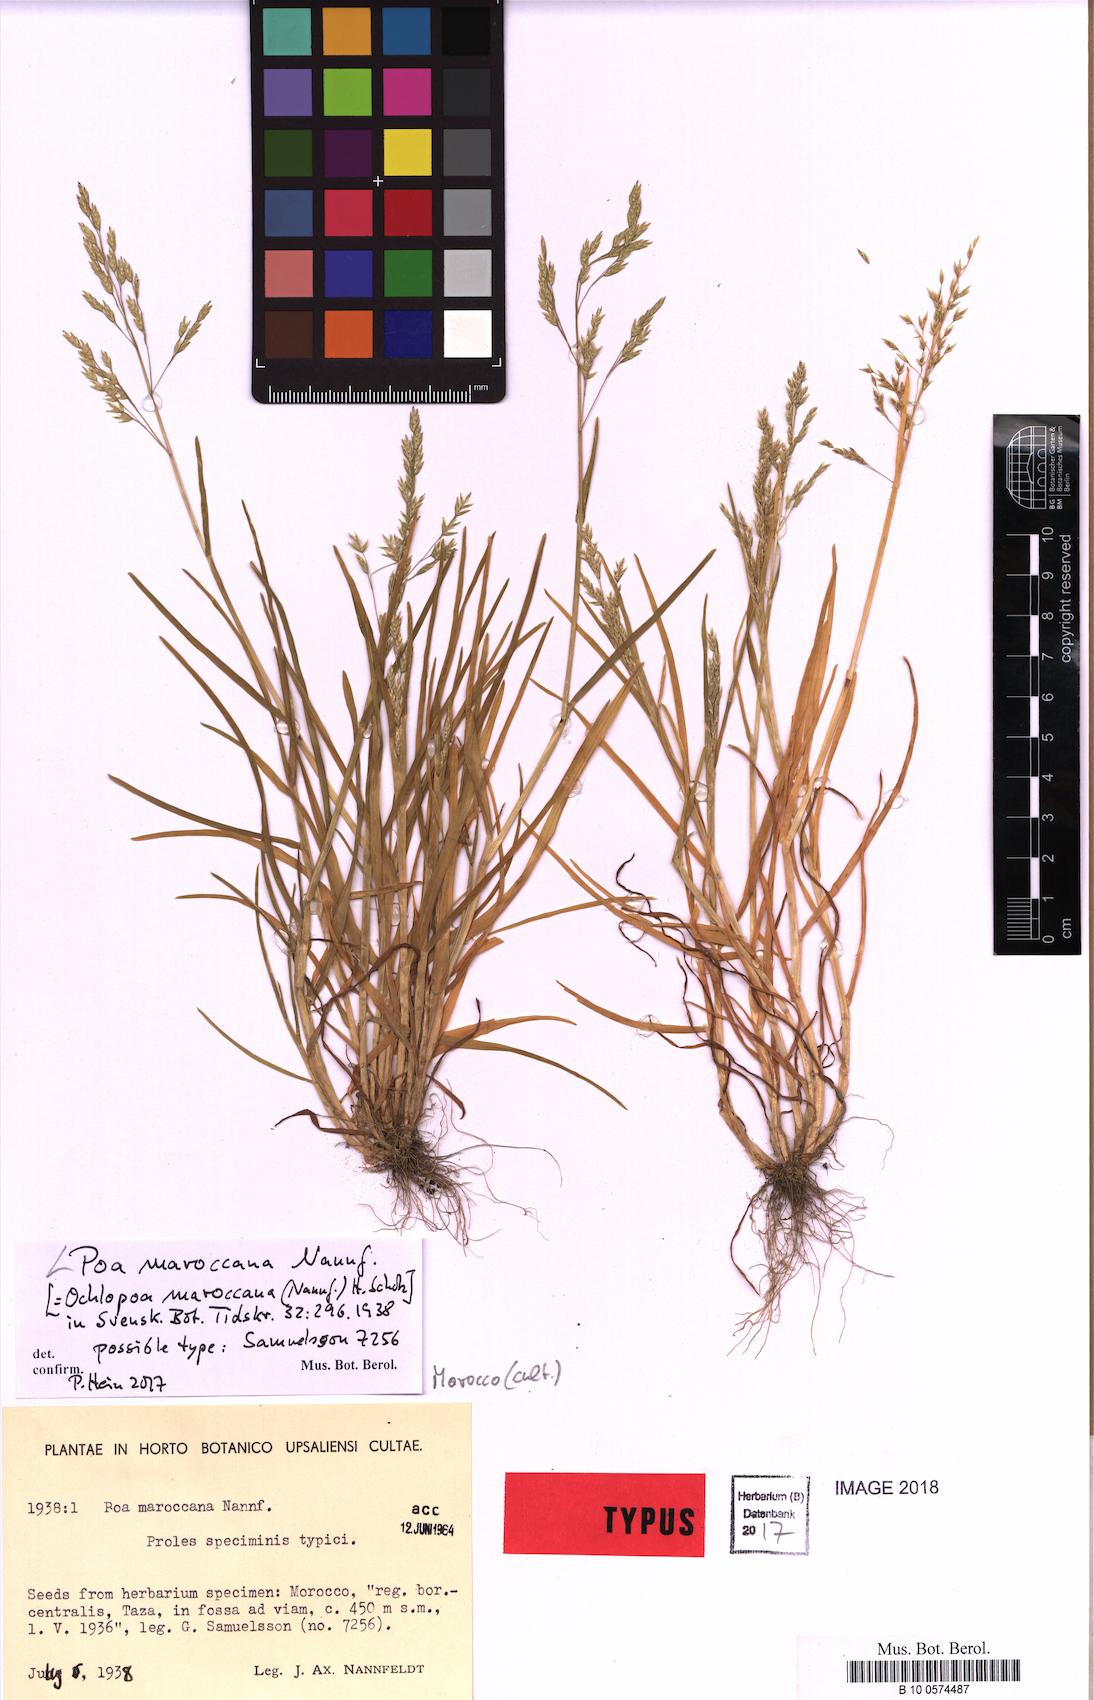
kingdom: Plantae
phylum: Tracheophyta
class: Liliopsida
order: Poales
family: Poaceae
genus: Poa
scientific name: Poa maroccana
